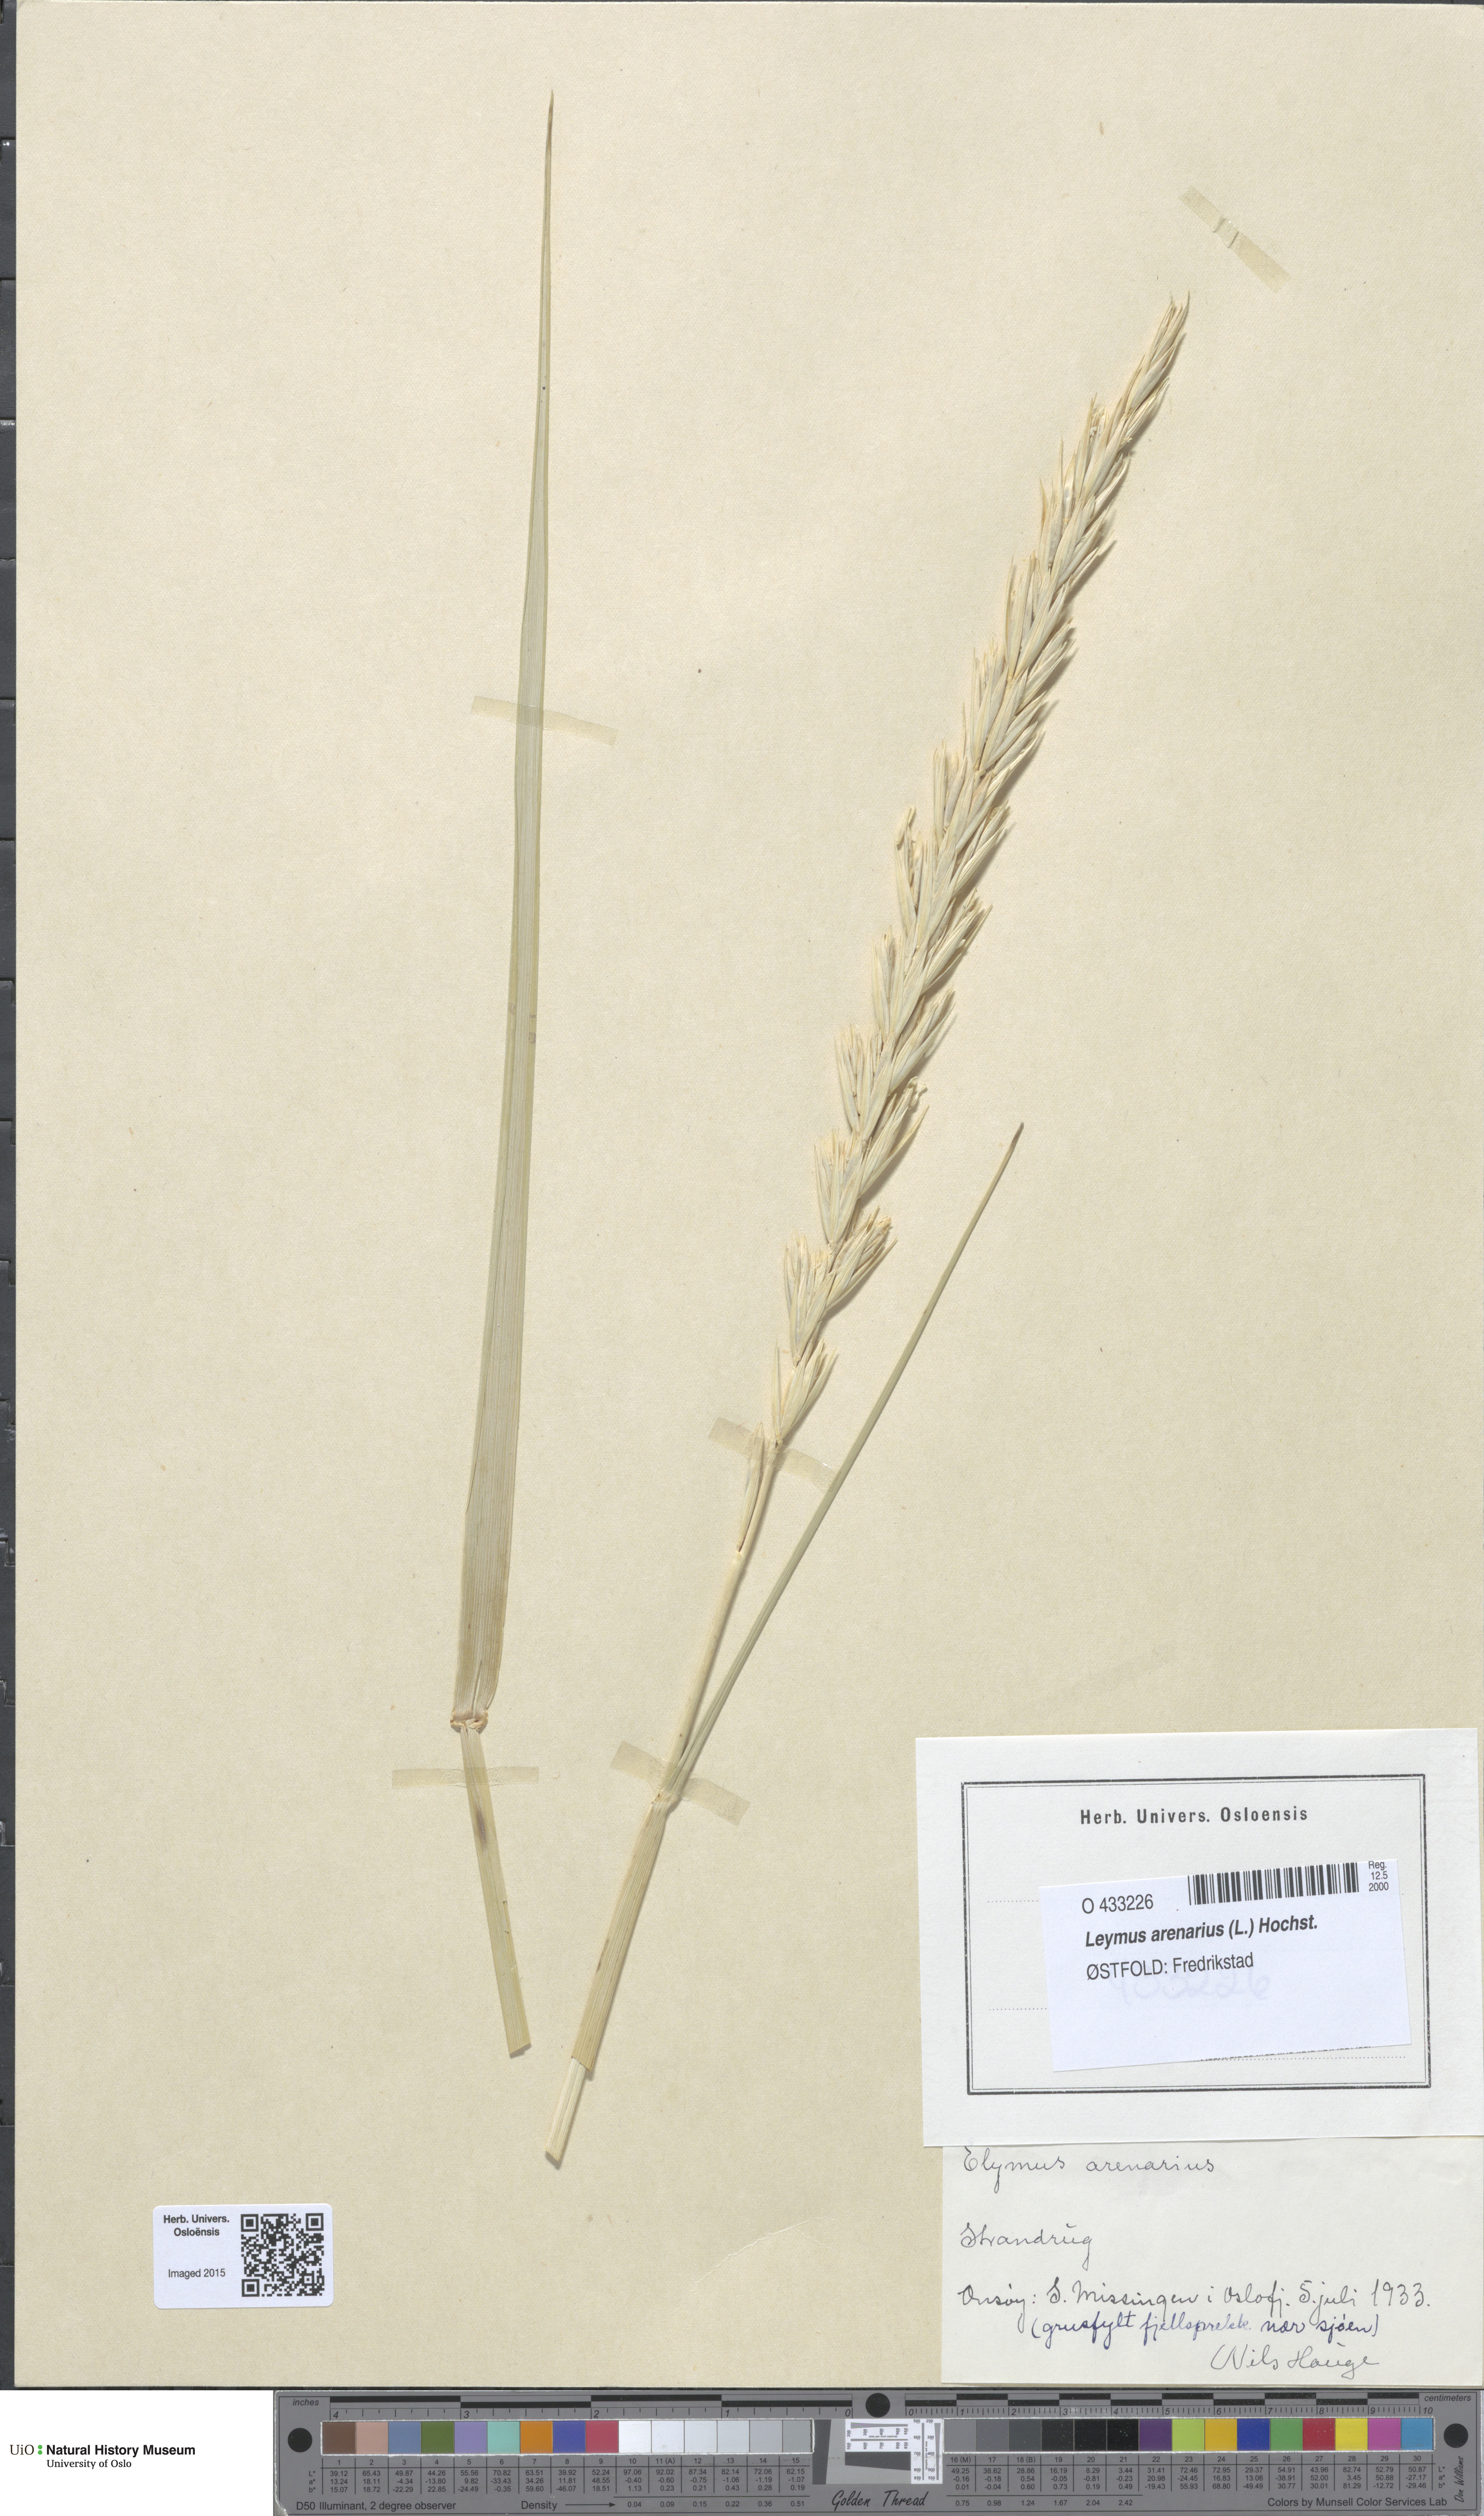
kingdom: Plantae
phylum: Tracheophyta
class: Liliopsida
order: Poales
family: Poaceae
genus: Leymus
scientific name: Leymus arenarius
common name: Lyme-grass
